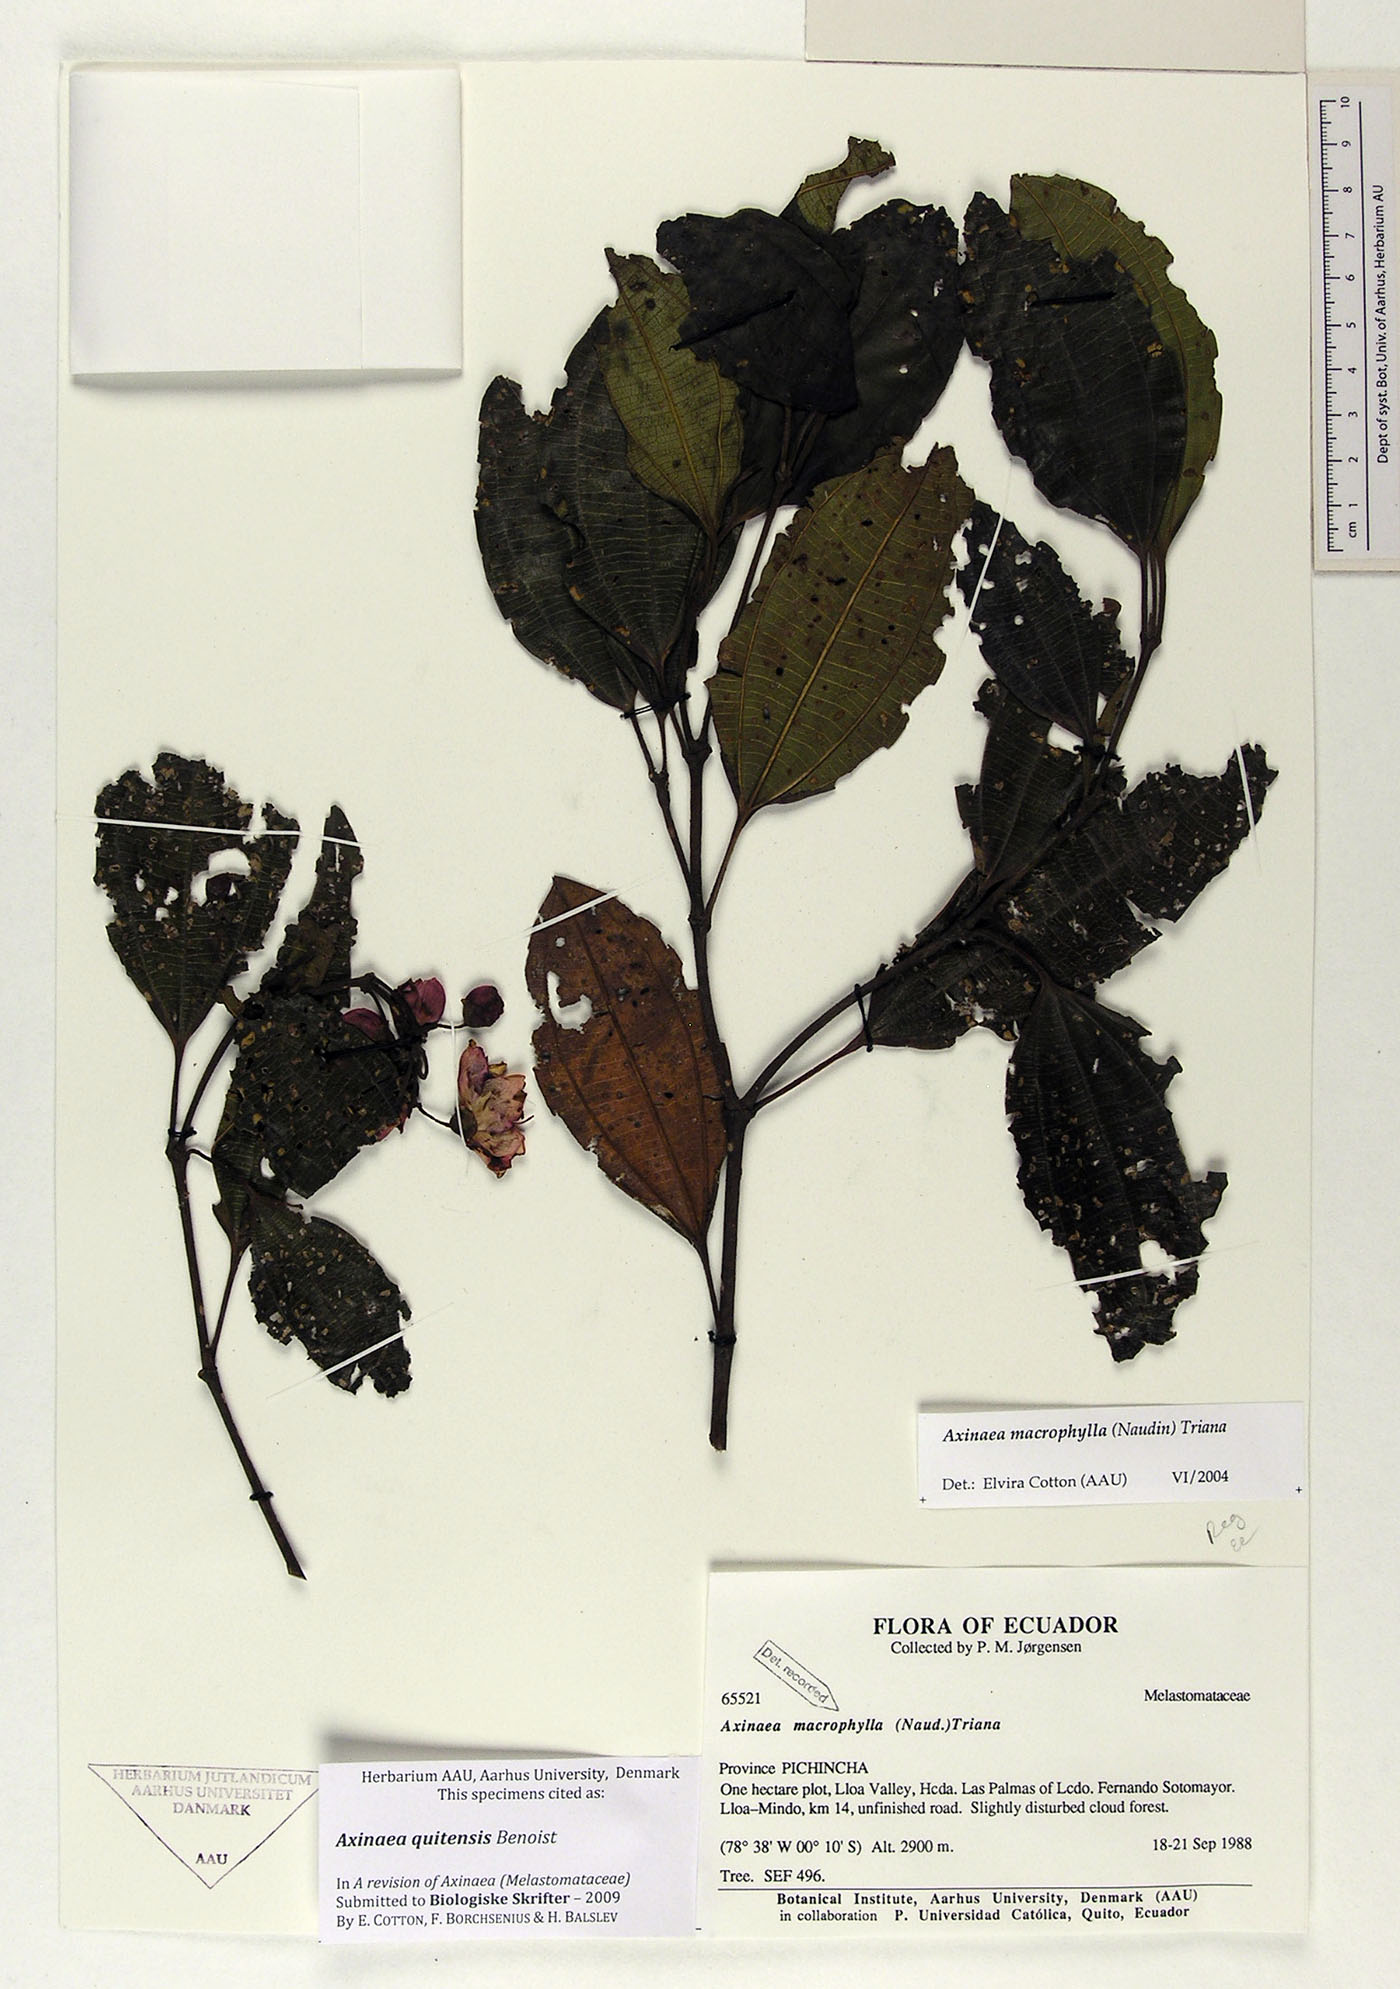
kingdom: Plantae
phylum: Tracheophyta
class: Magnoliopsida
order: Myrtales
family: Melastomataceae
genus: Axinaea
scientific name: Axinaea quitensis
